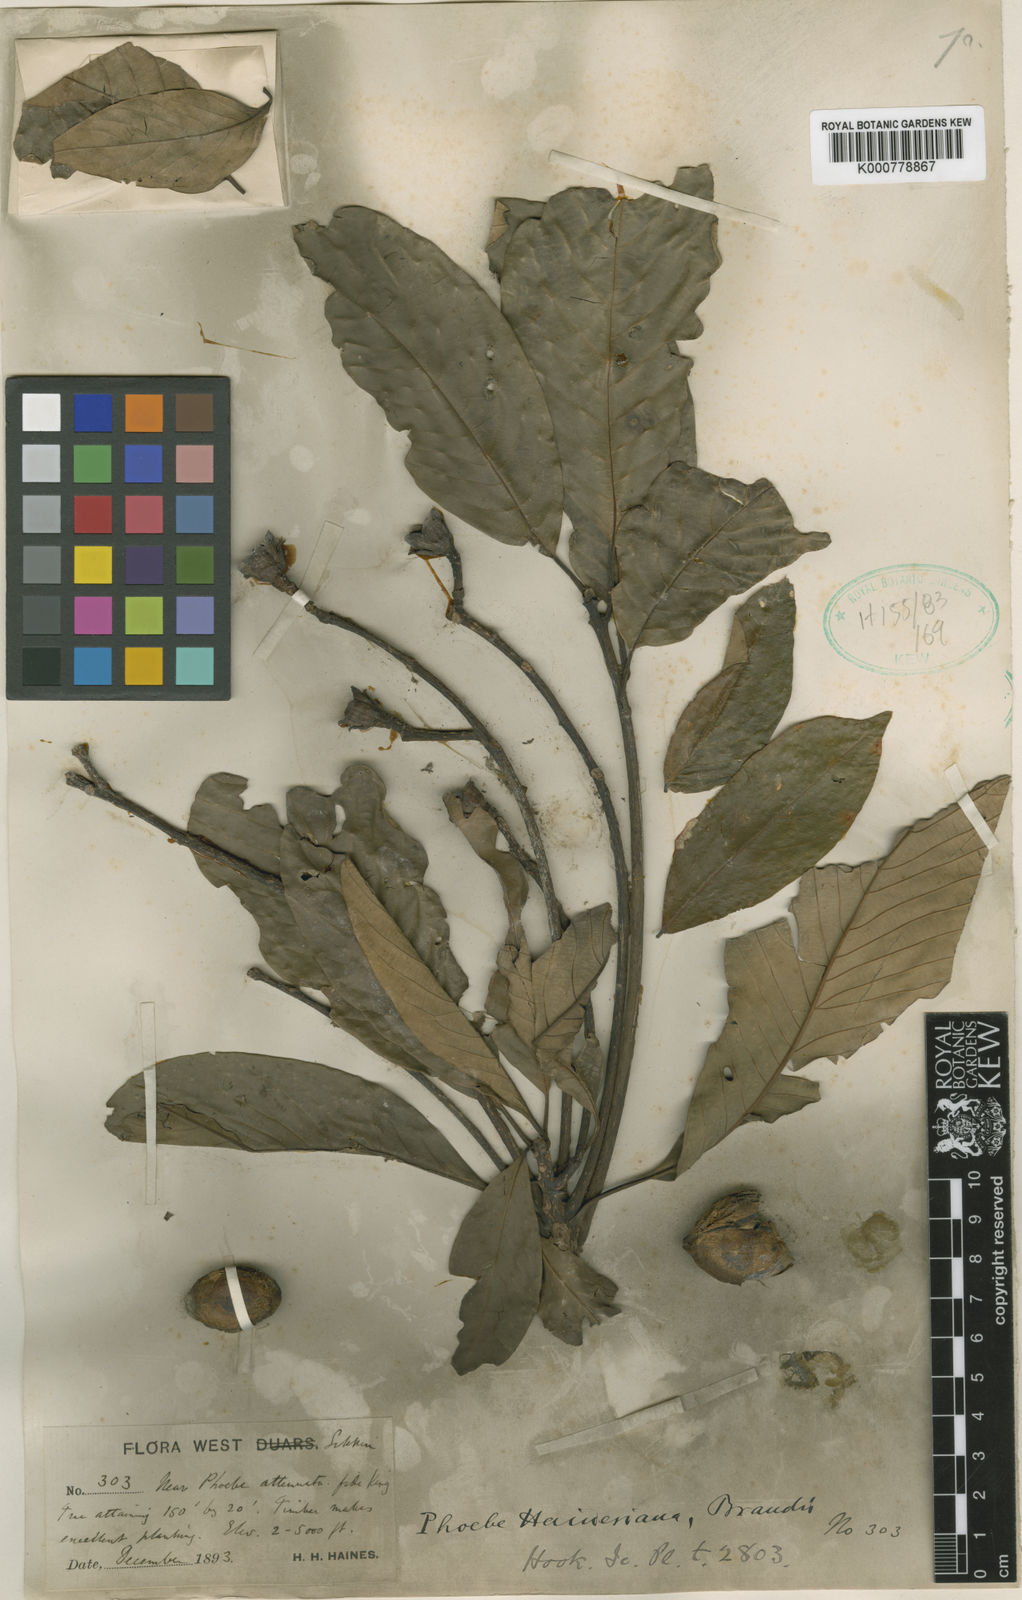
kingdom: Plantae
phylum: Tracheophyta
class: Magnoliopsida
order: Laurales
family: Lauraceae
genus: Phoebe
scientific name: Phoebe bootanica
